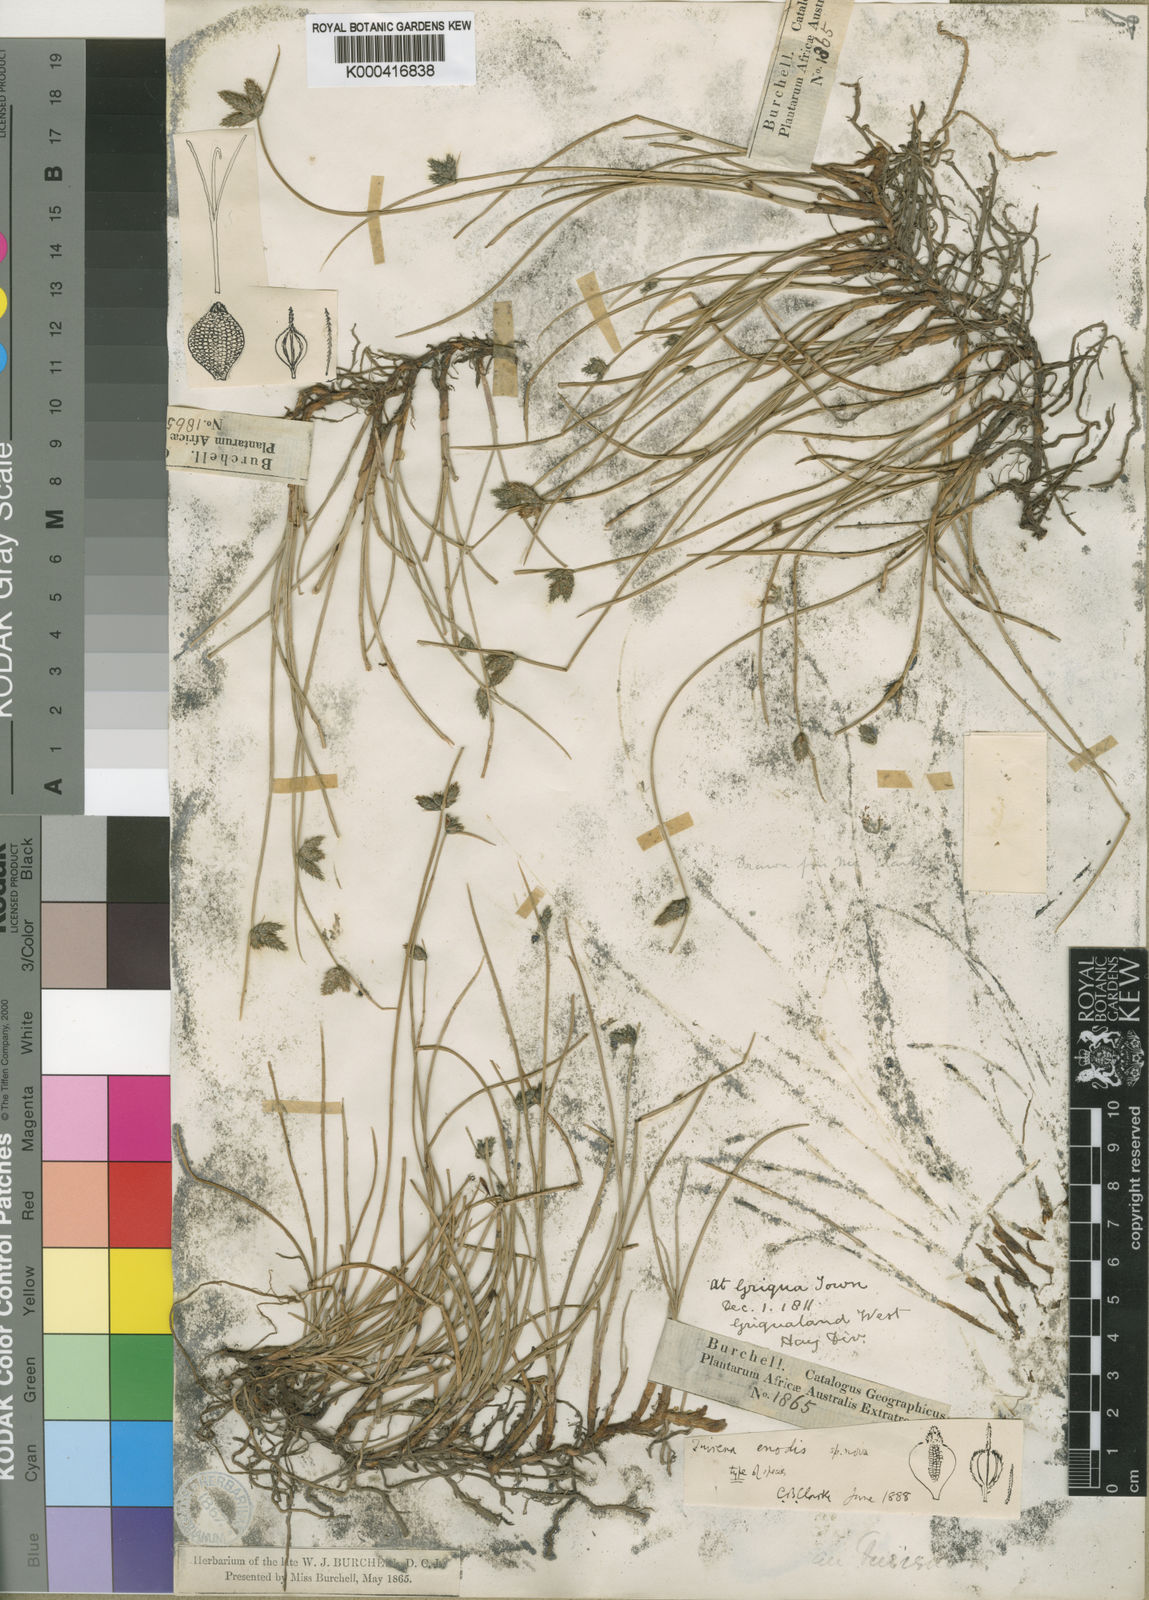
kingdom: Plantae
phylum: Tracheophyta
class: Liliopsida
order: Poales
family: Cyperaceae
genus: Fuirena
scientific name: Fuirena coerulescens
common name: Blue umbrella-sedge
